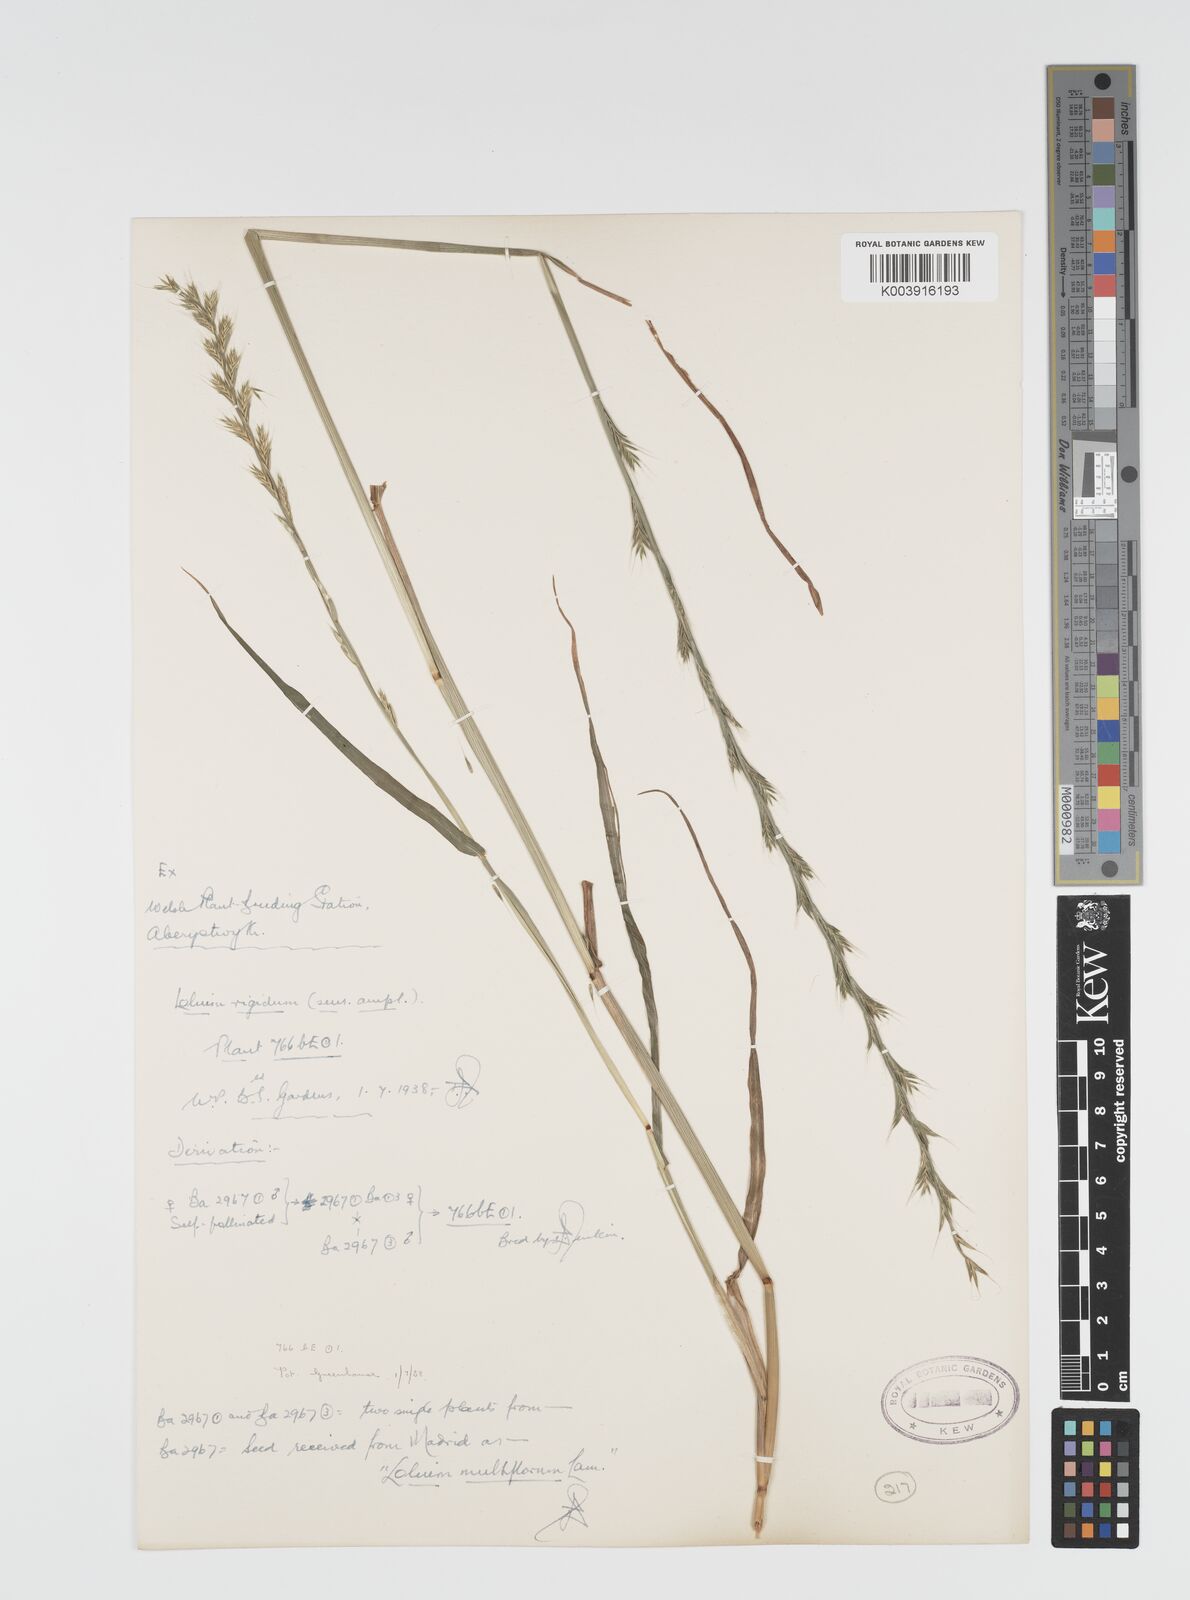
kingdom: Plantae
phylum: Tracheophyta
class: Liliopsida
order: Poales
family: Poaceae
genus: Lolium
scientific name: Lolium rigidum
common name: Wimmera ryegrass
